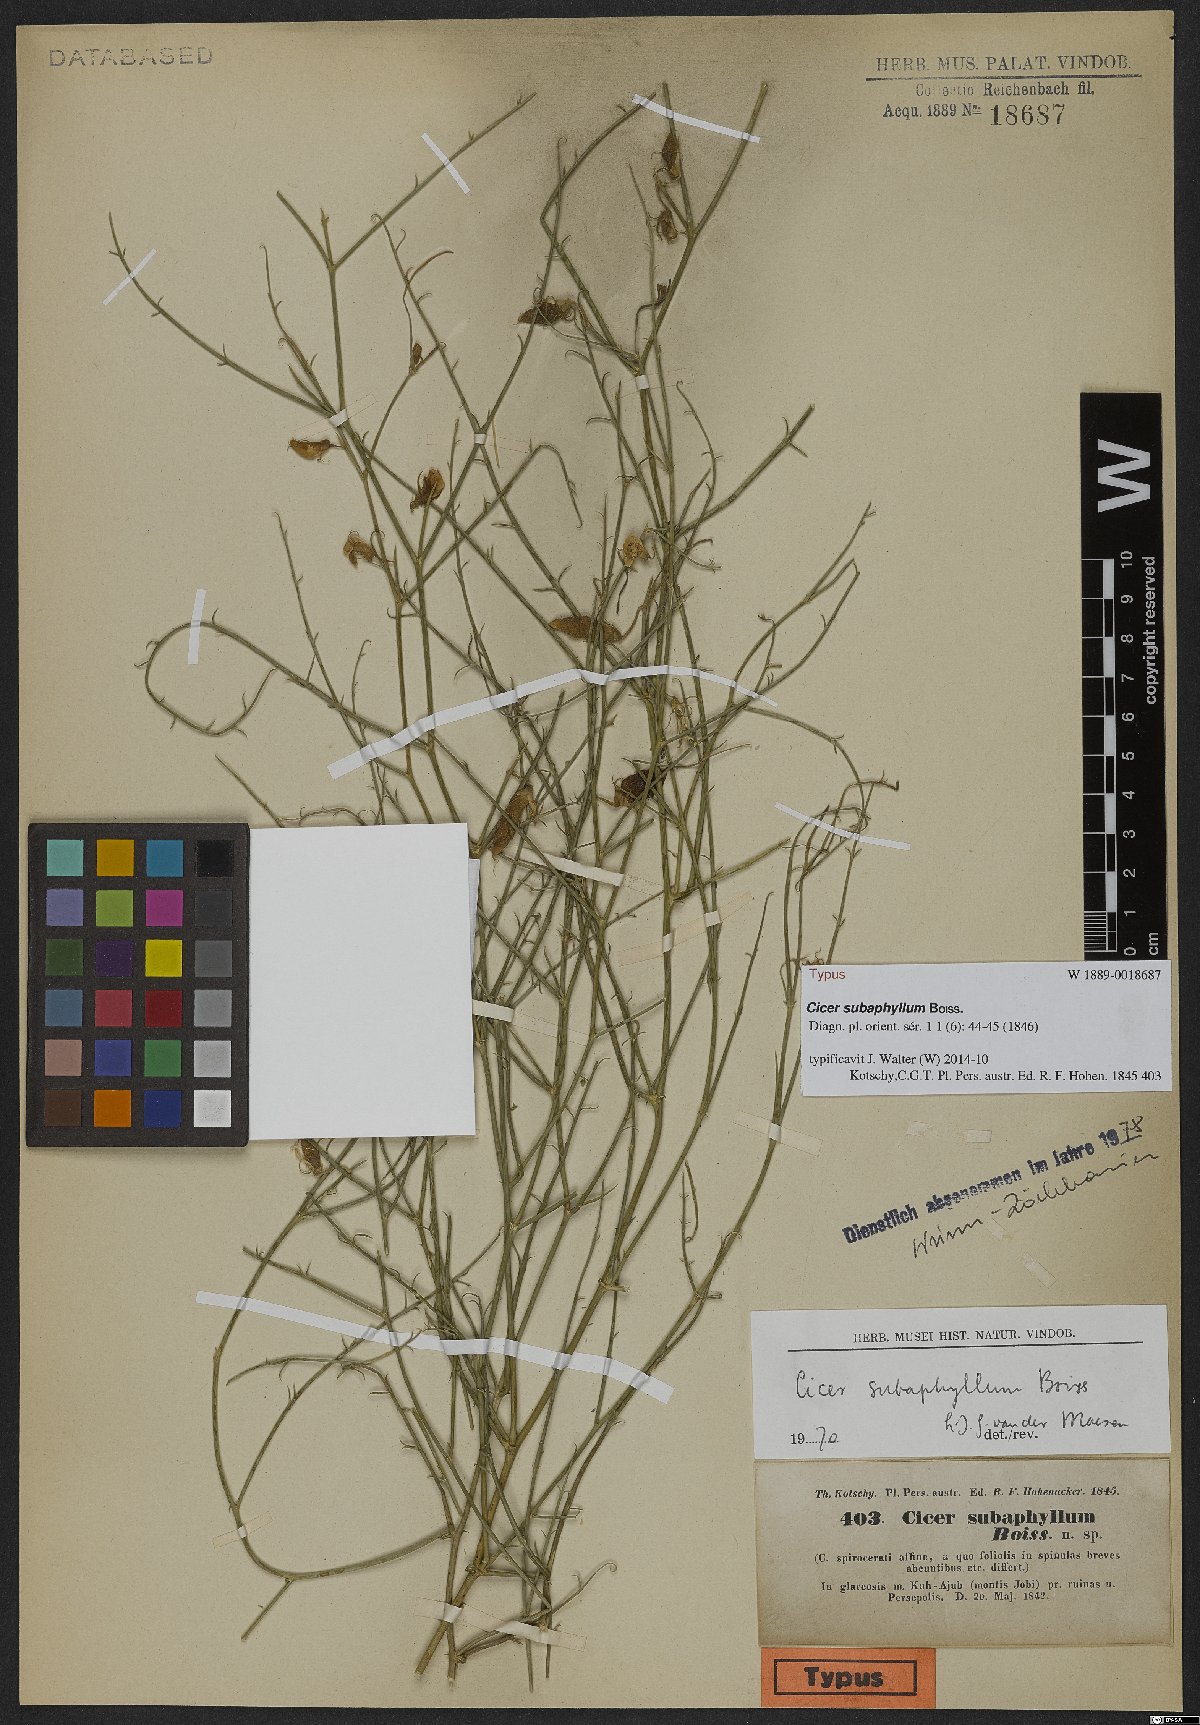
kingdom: Plantae
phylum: Tracheophyta
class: Magnoliopsida
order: Fabales
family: Fabaceae
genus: Cicer
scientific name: Cicer subaphyllum
